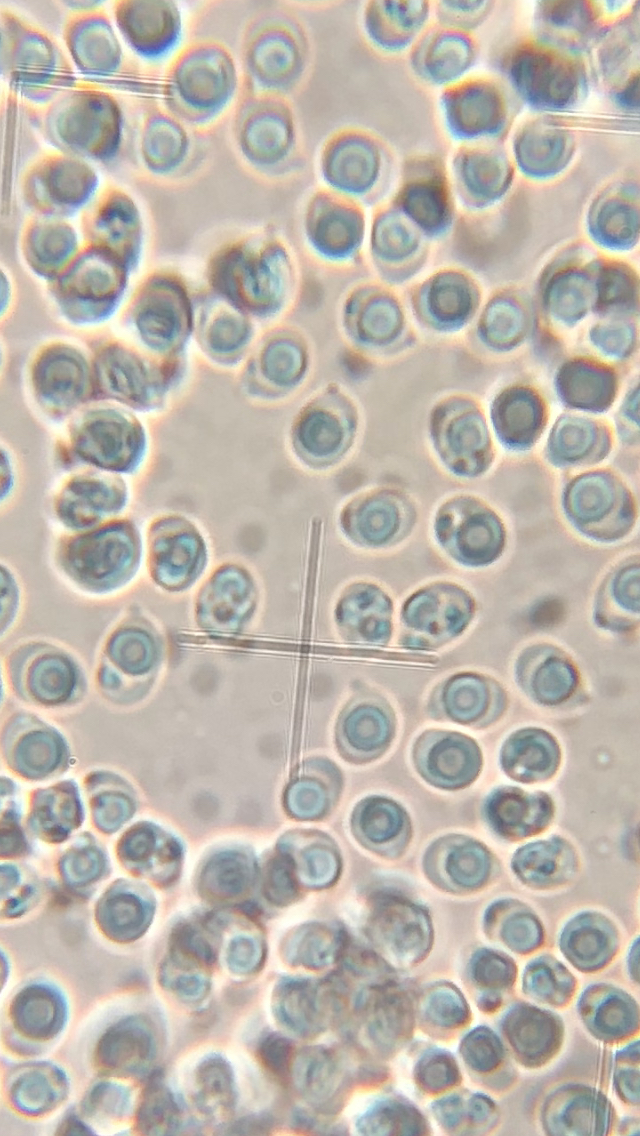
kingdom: Fungi
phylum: Basidiomycota
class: Agaricomycetes
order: Agaricales
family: Tricholomataceae
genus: Tricholoma
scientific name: Tricholoma scalpturatum
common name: gulplettet ridderhat
